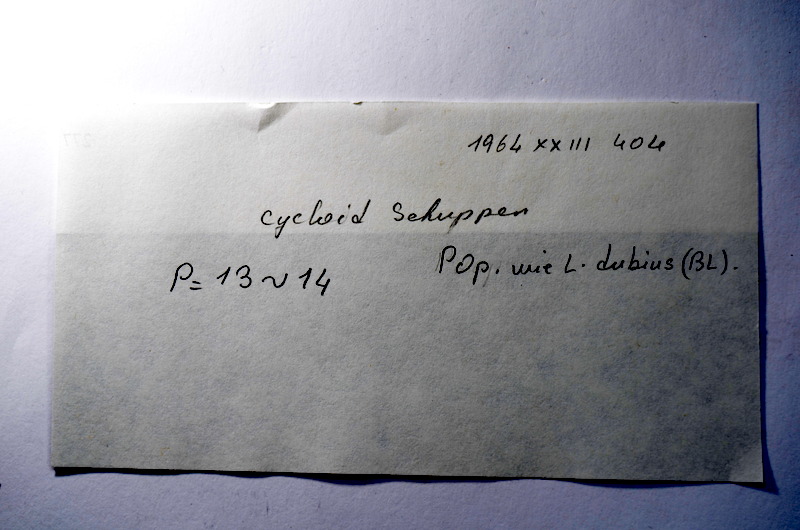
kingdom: Animalia
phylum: Chordata
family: Ascalaboidae
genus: Tharsis
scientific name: Tharsis dubius
